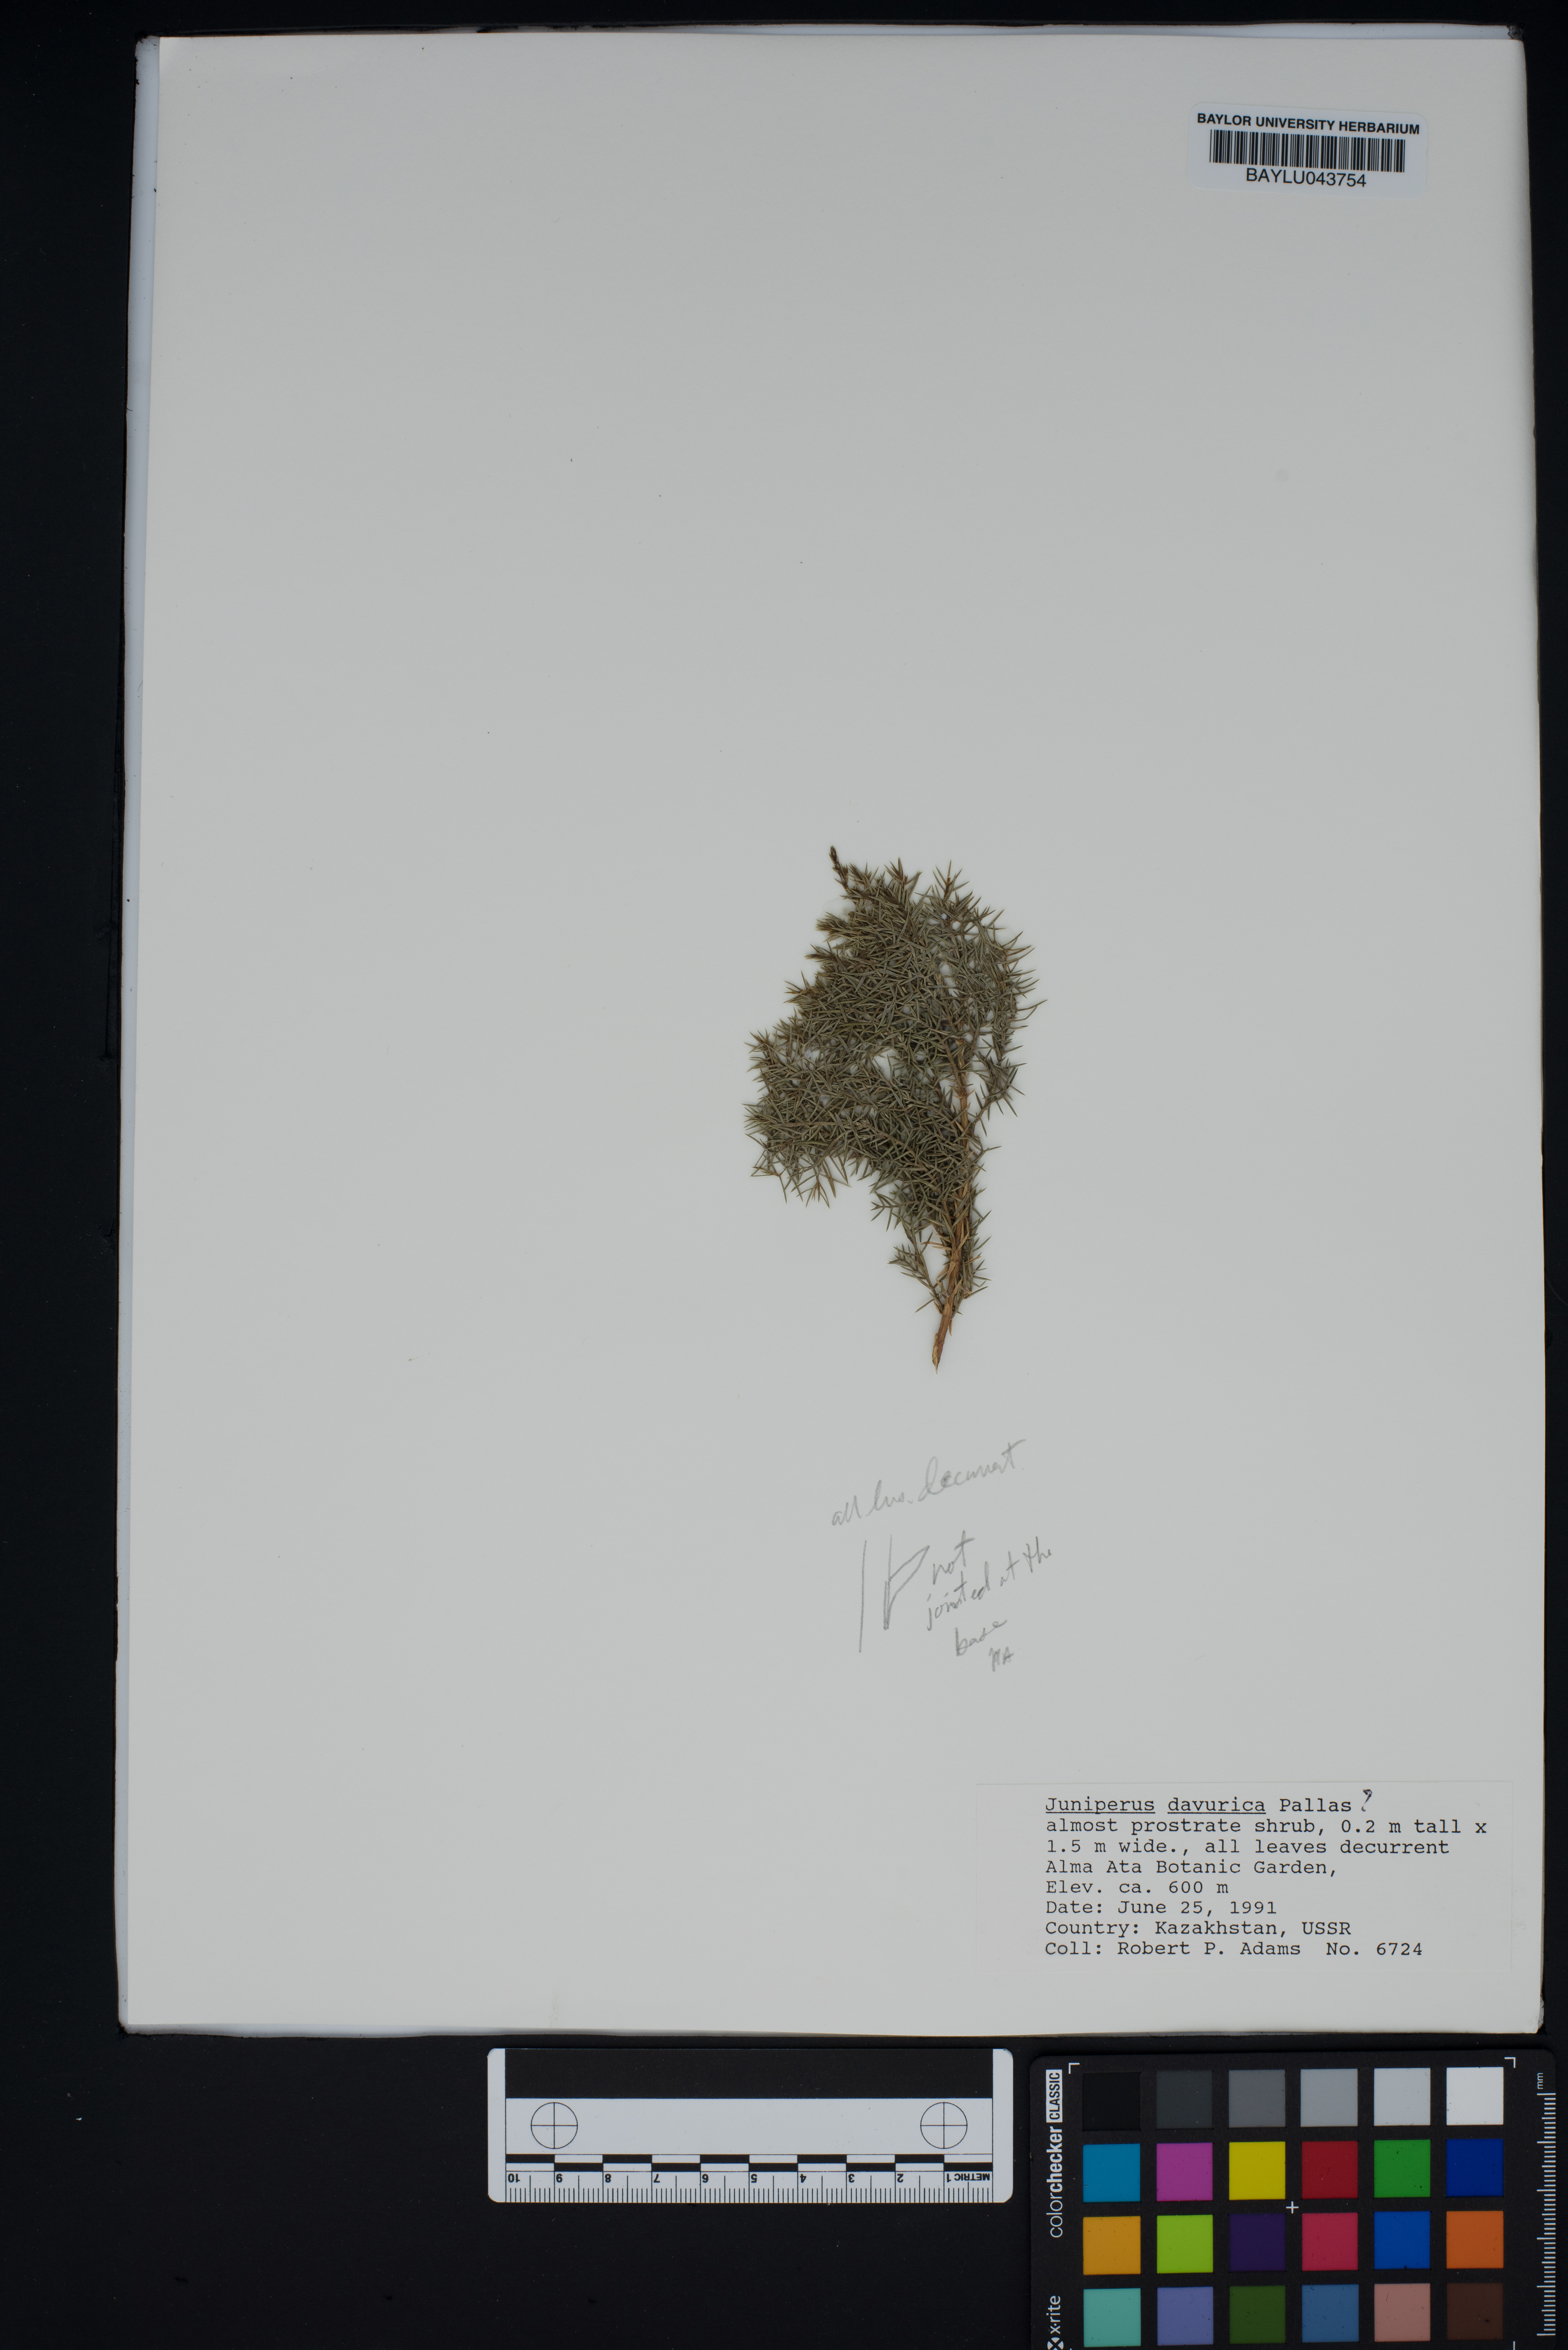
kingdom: Plantae
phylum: Tracheophyta
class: Pinopsida
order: Pinales
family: Cupressaceae
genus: Juniperus
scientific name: Juniperus sabina
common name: Savin
